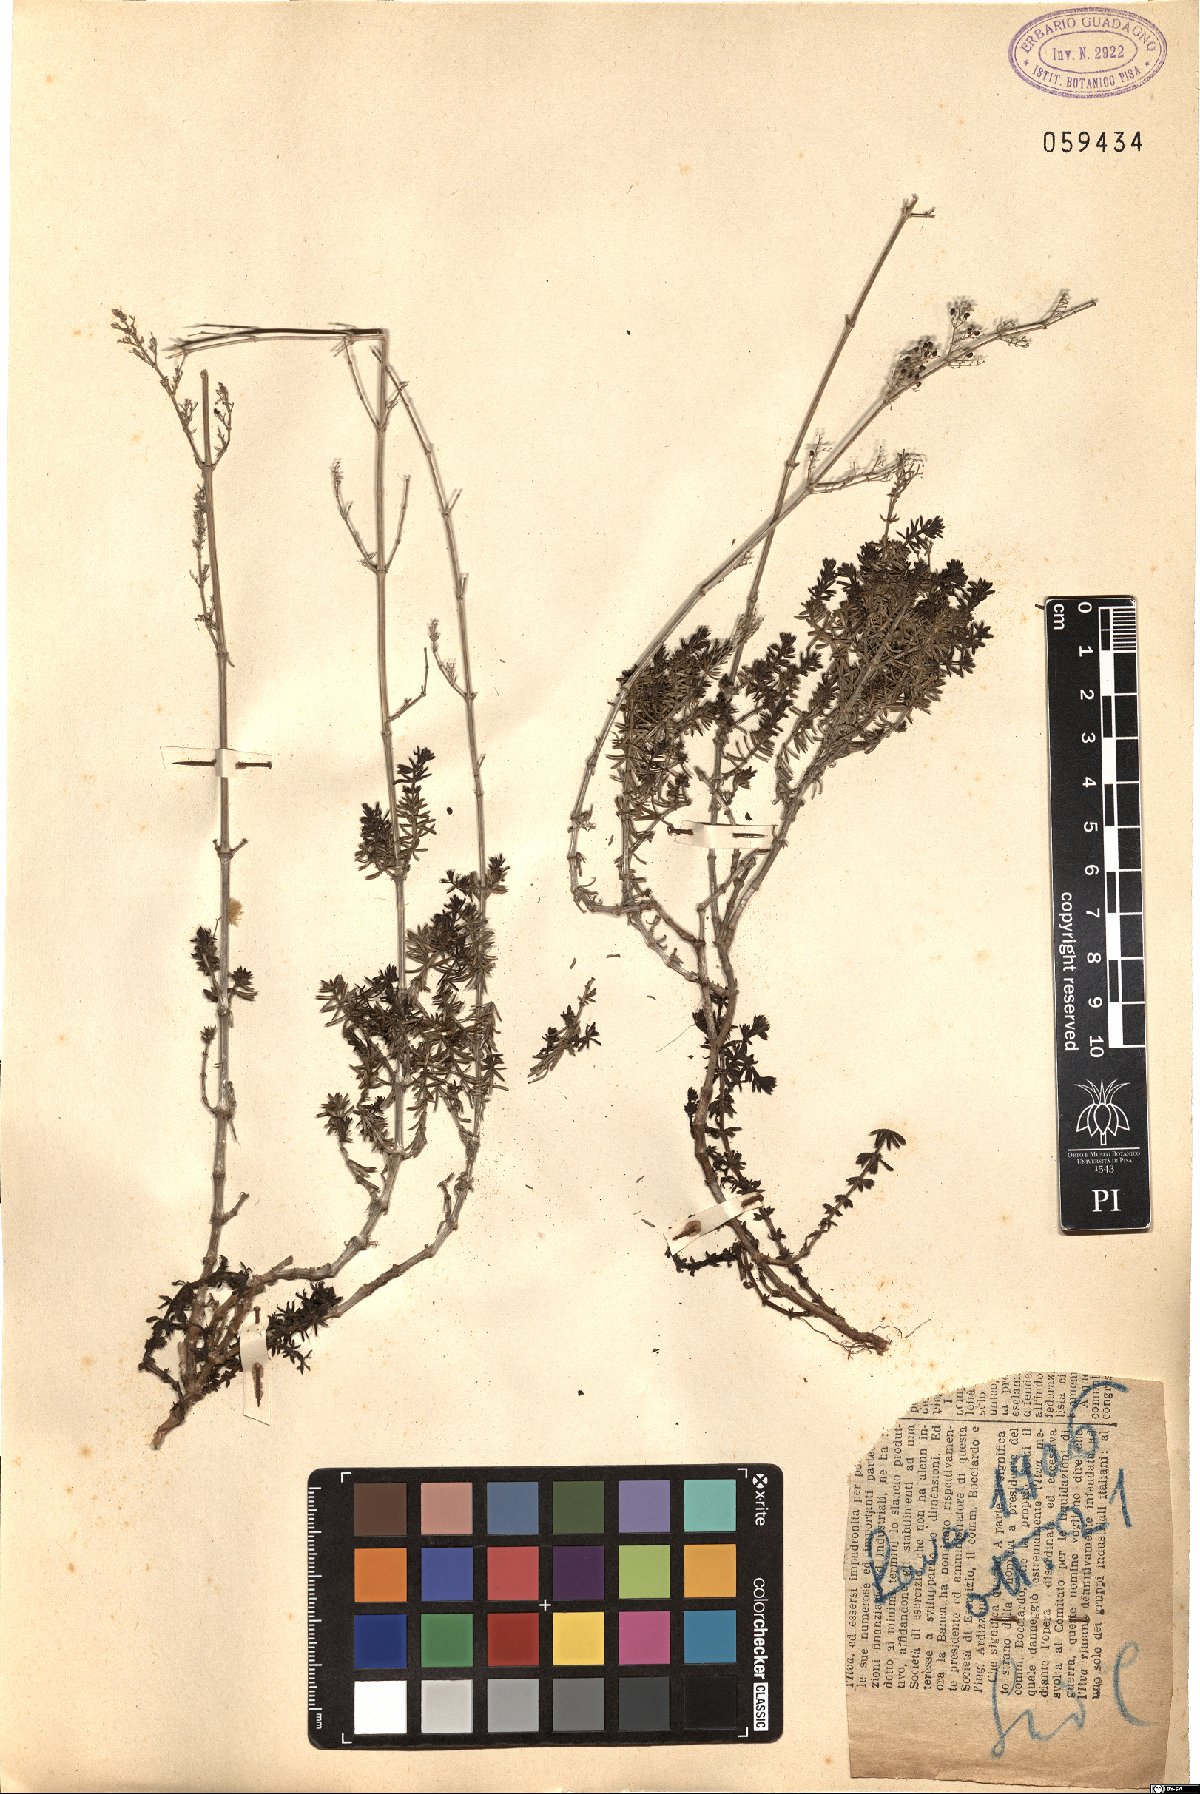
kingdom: Plantae
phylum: Tracheophyta
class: Magnoliopsida
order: Gentianales
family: Rubiaceae
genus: Galium
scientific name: Galium
